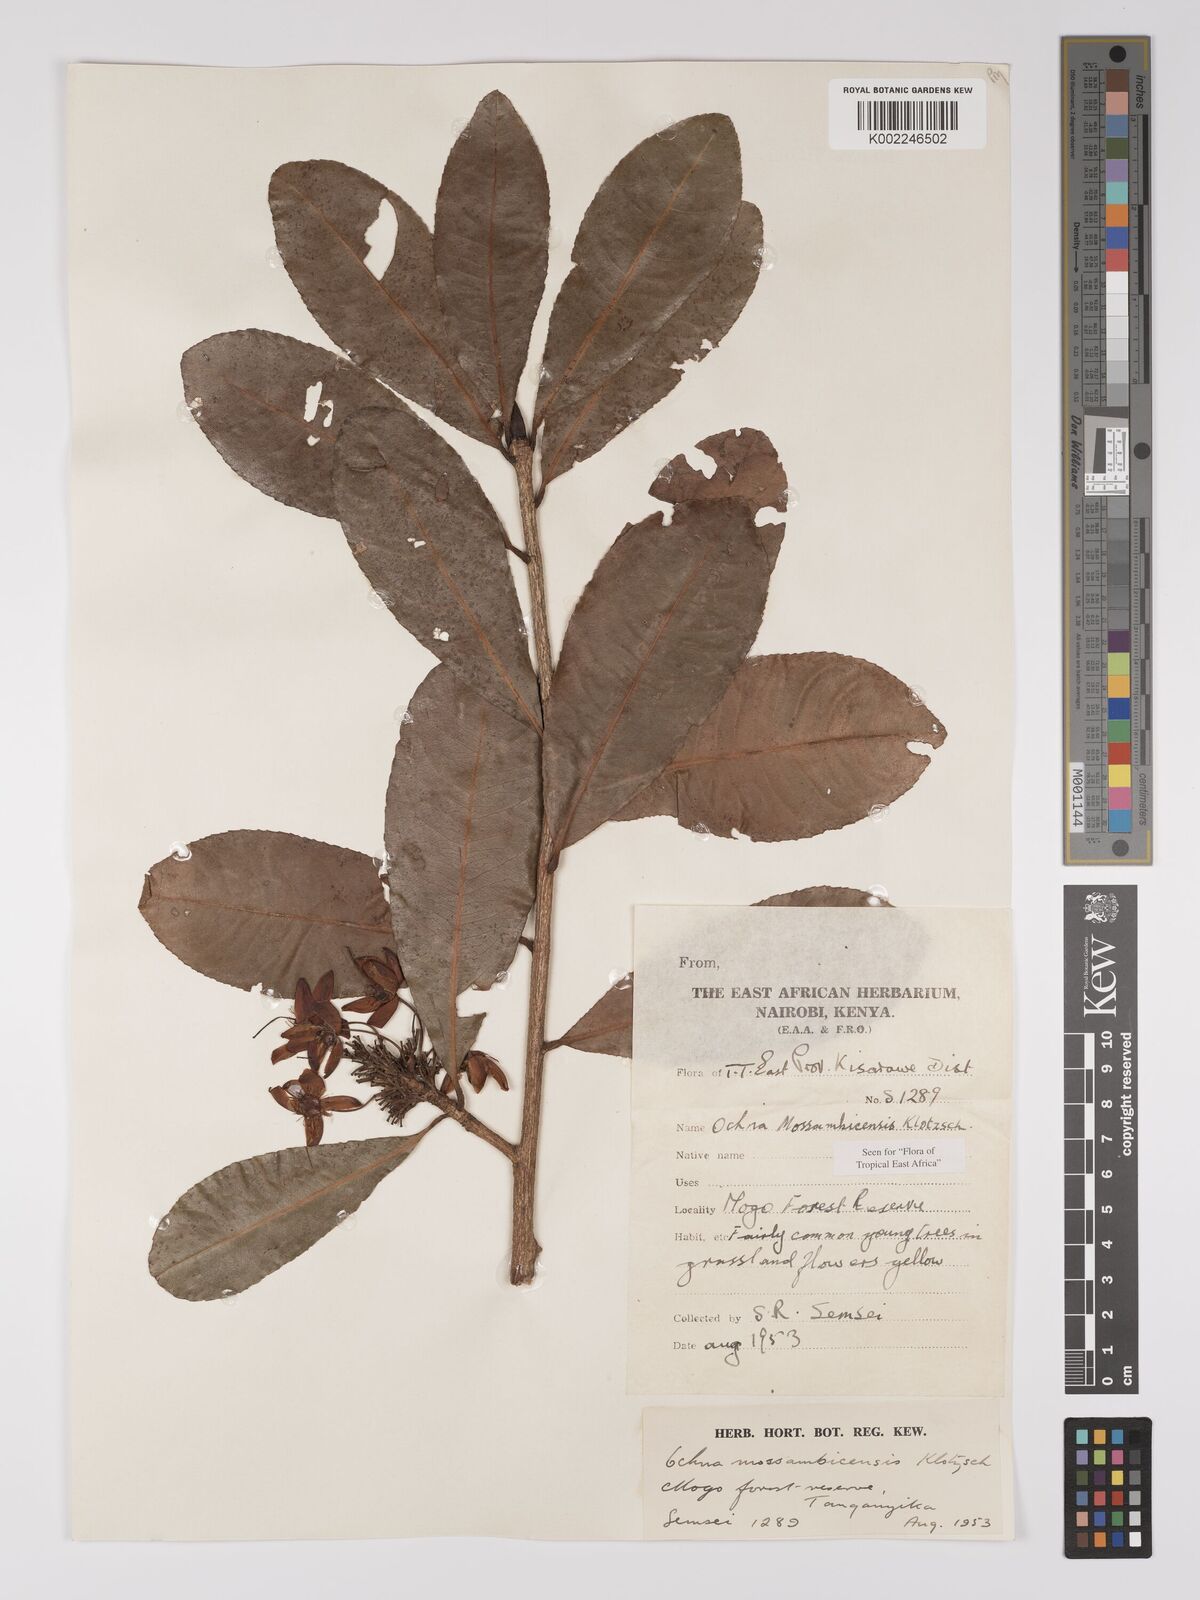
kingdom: Plantae
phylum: Tracheophyta
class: Magnoliopsida
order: Malpighiales
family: Ochnaceae
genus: Ochna
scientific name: Ochna atropurpurea
